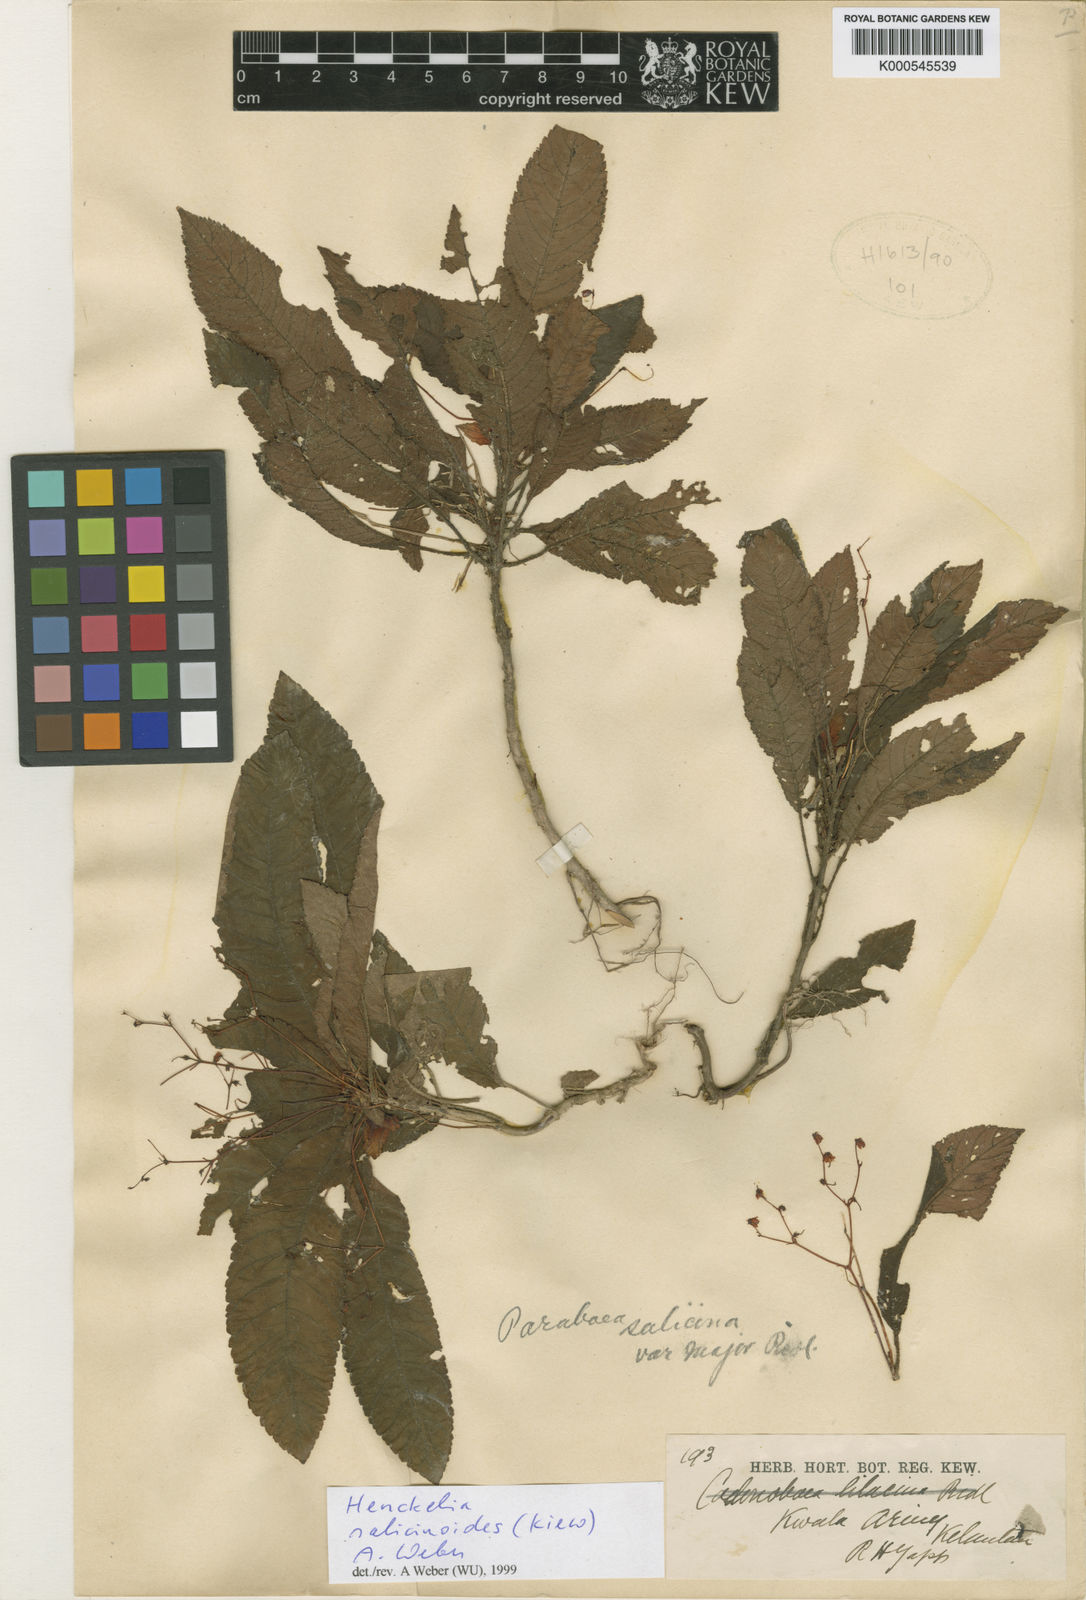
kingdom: Plantae
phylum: Tracheophyta
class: Magnoliopsida
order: Lamiales
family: Gesneriaceae
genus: Codonoboea
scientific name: Codonoboea salicinoides
